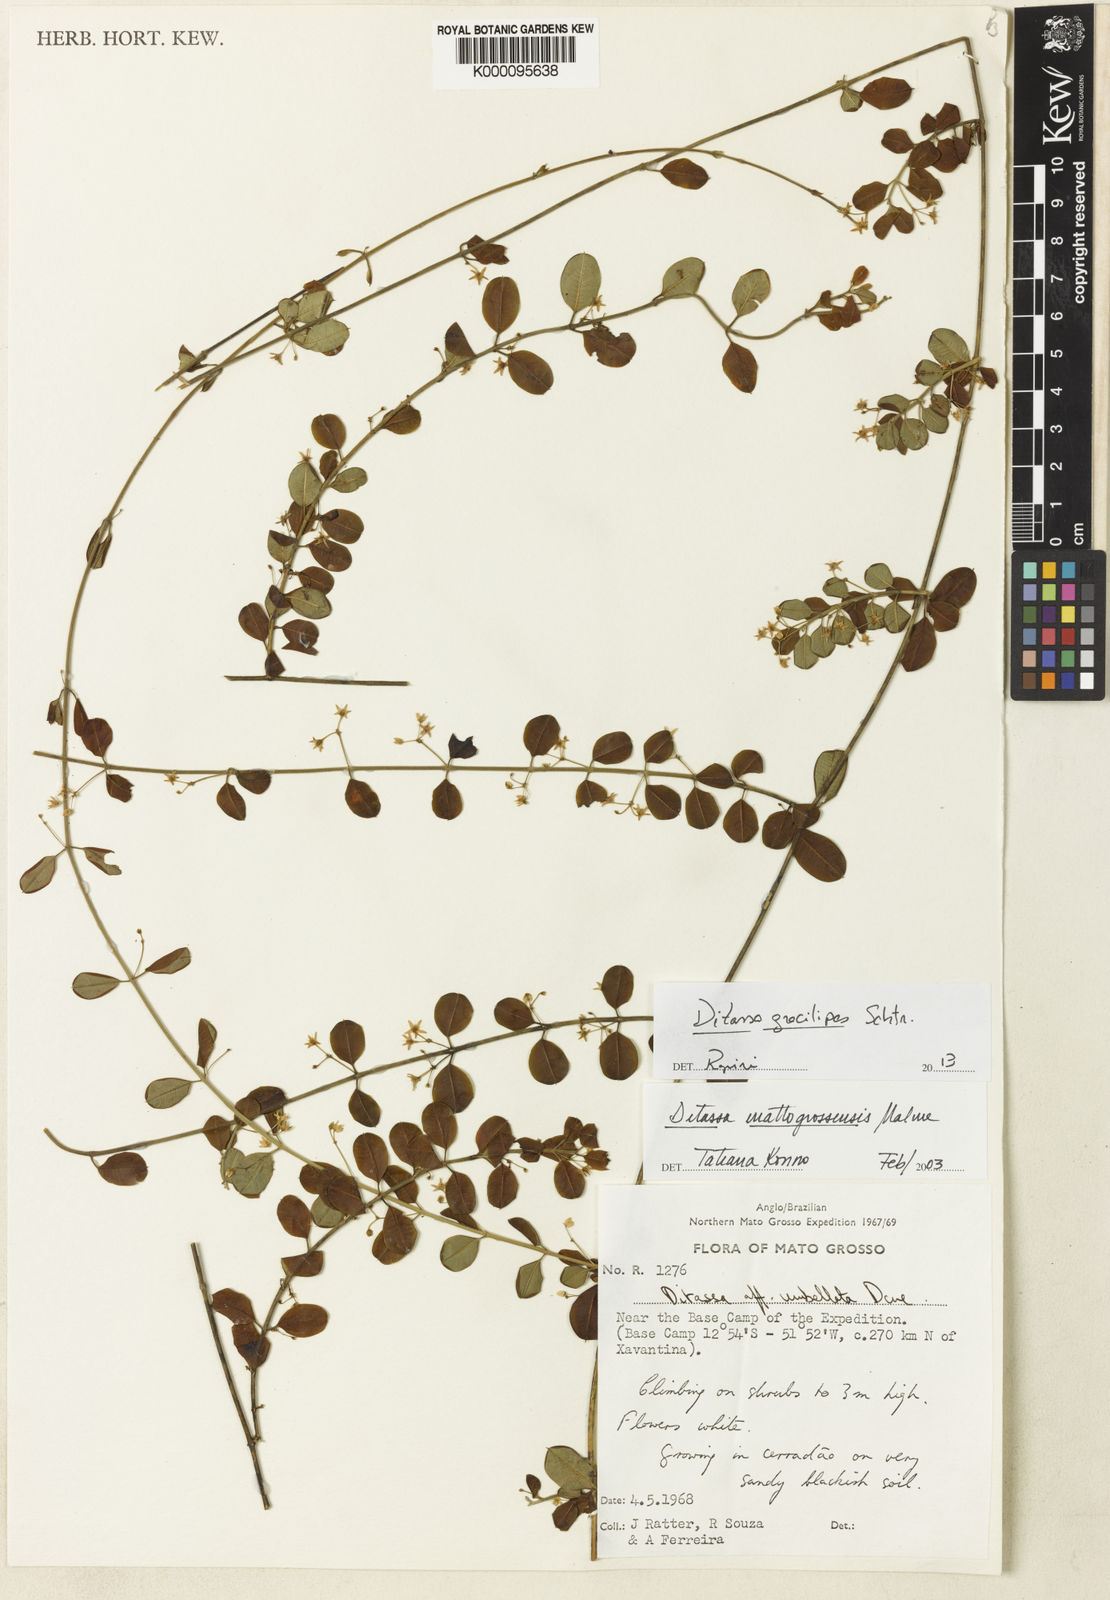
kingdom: Plantae
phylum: Tracheophyta
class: Magnoliopsida
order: Gentianales
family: Apocynaceae
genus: Ditassa
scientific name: Ditassa gracilipes
